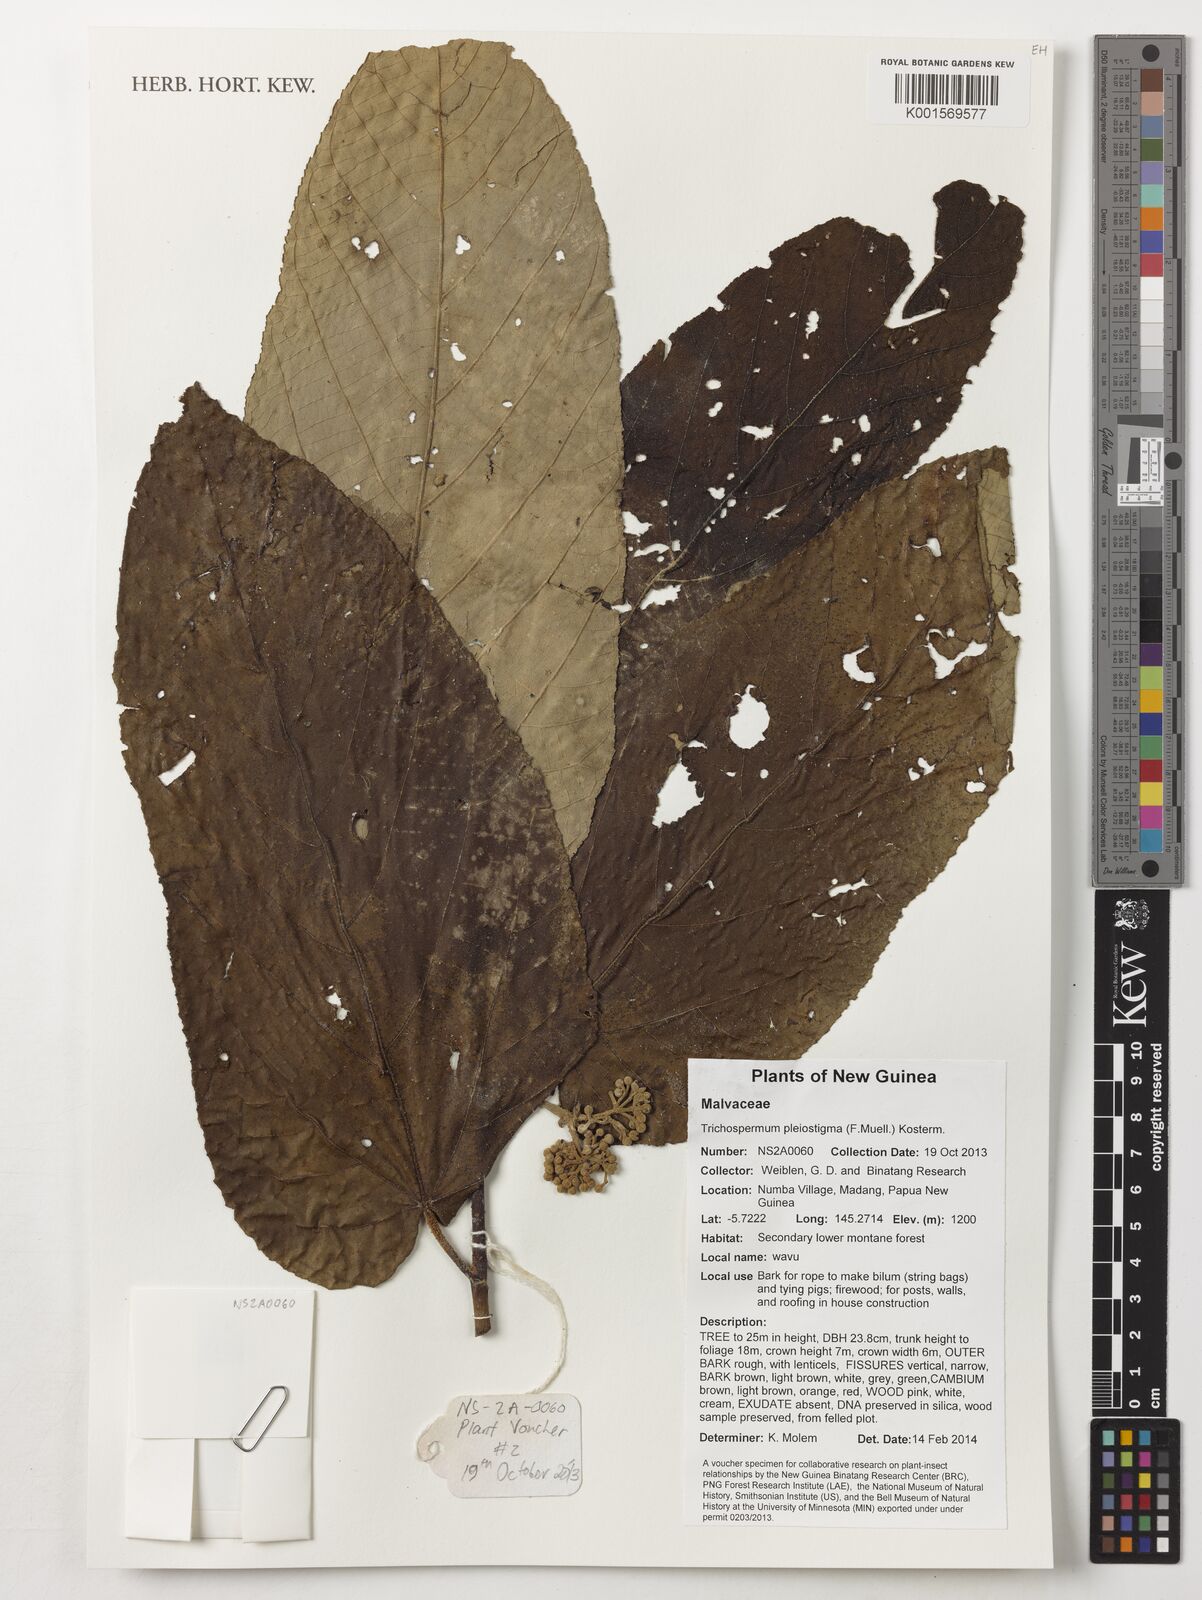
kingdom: Plantae
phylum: Tracheophyta
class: Magnoliopsida
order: Malvales
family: Malvaceae
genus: Trichospermum
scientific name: Trichospermum pleiostigma
